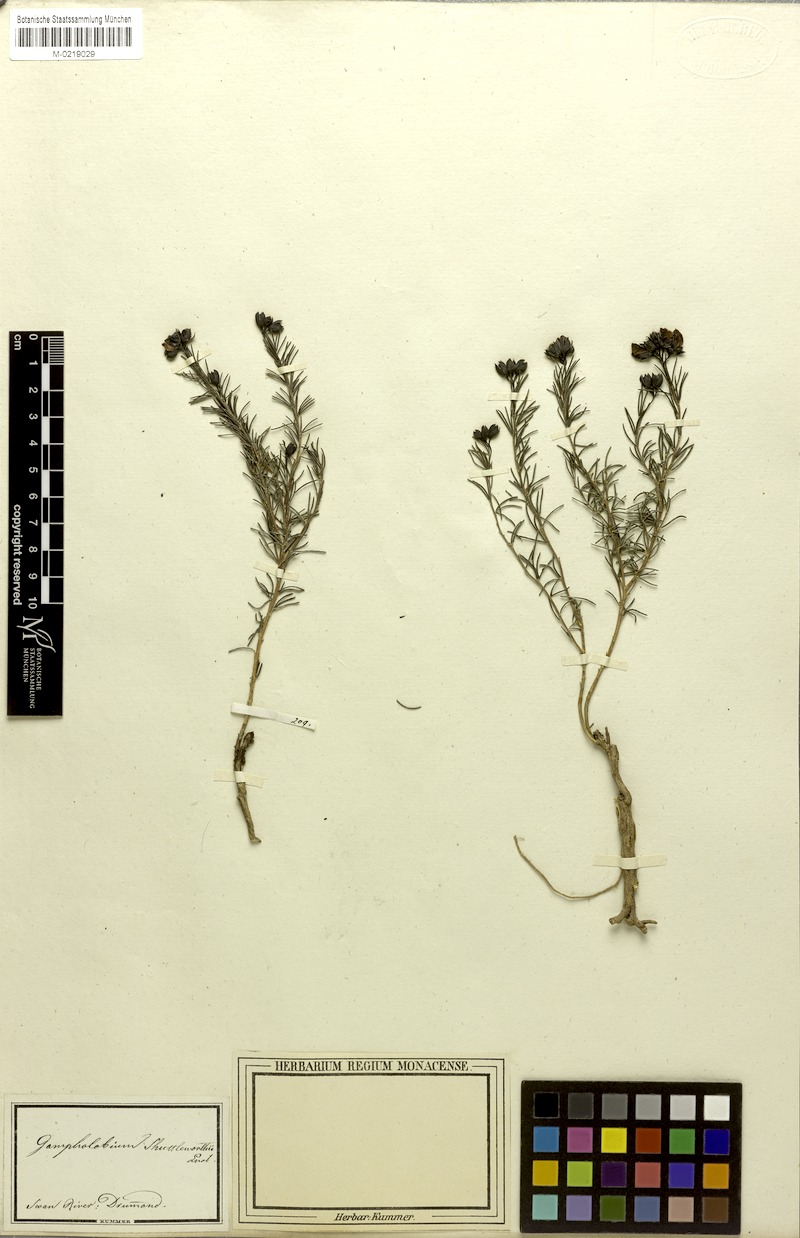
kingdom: Plantae
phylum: Tracheophyta
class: Magnoliopsida
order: Fabales
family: Fabaceae
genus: Gompholobium
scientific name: Gompholobium shuttleworthii
